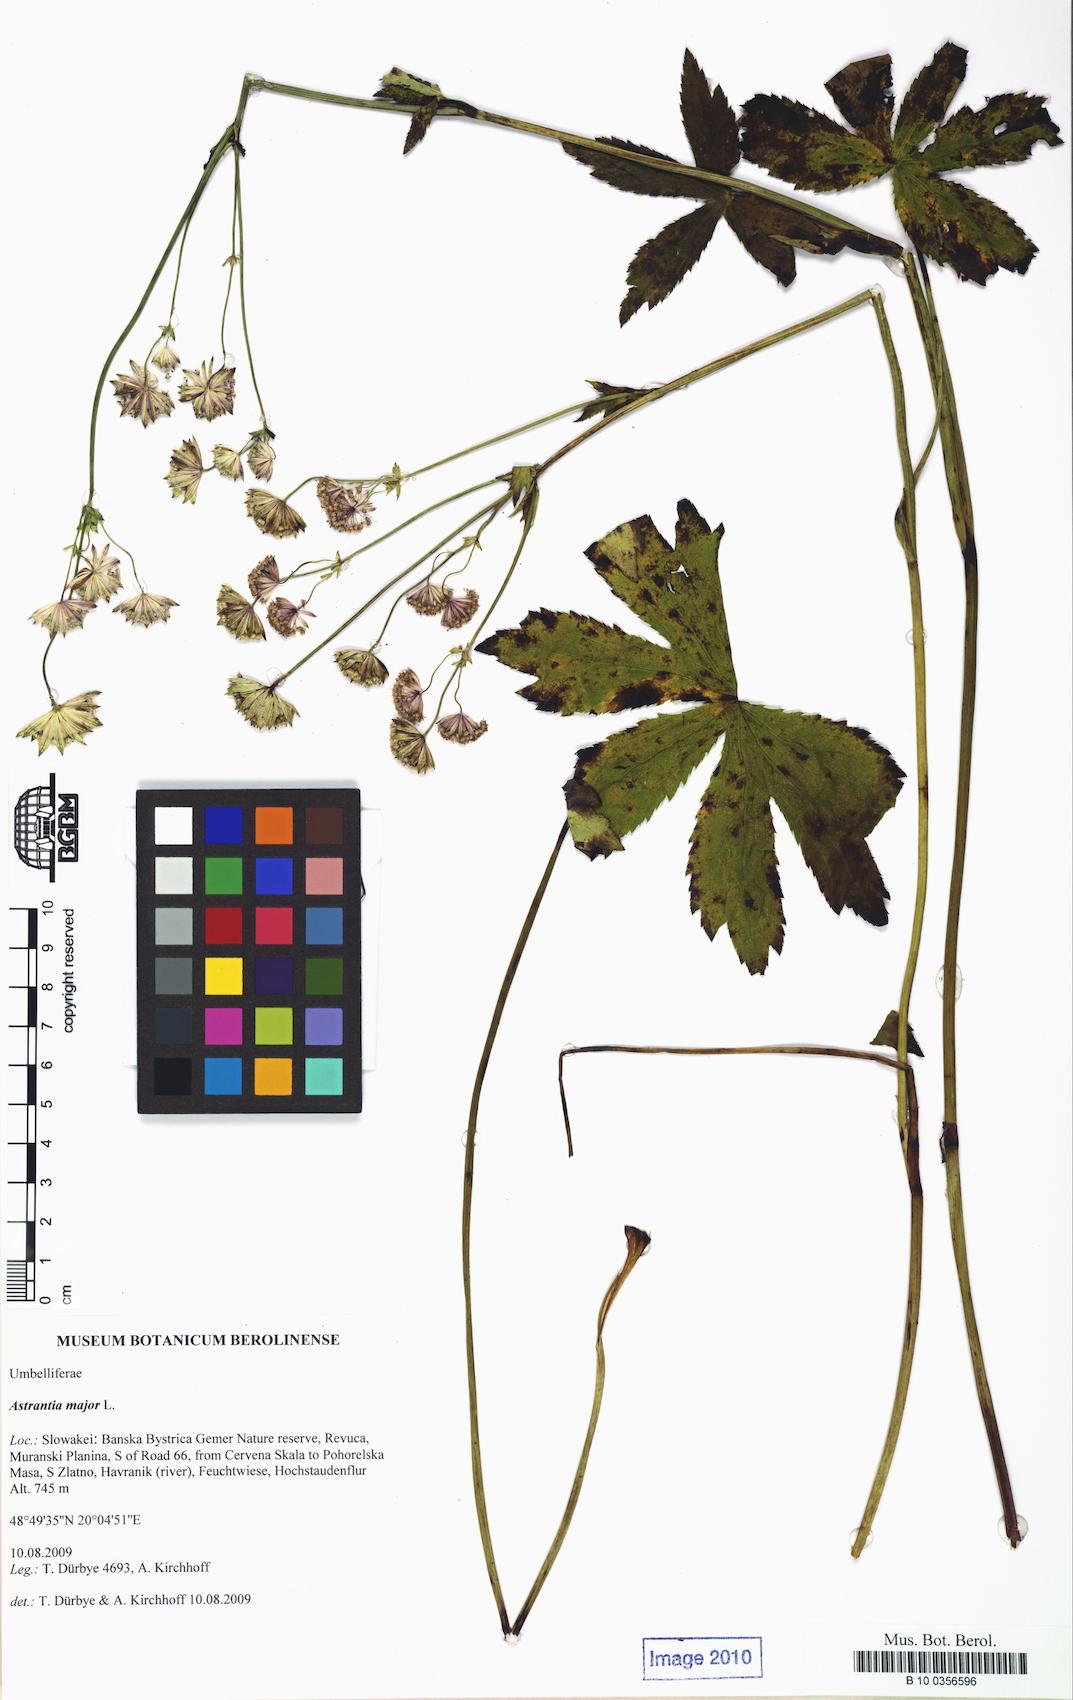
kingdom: Plantae
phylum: Tracheophyta
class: Magnoliopsida
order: Apiales
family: Apiaceae
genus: Astrantia
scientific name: Astrantia major
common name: Greater masterwort
